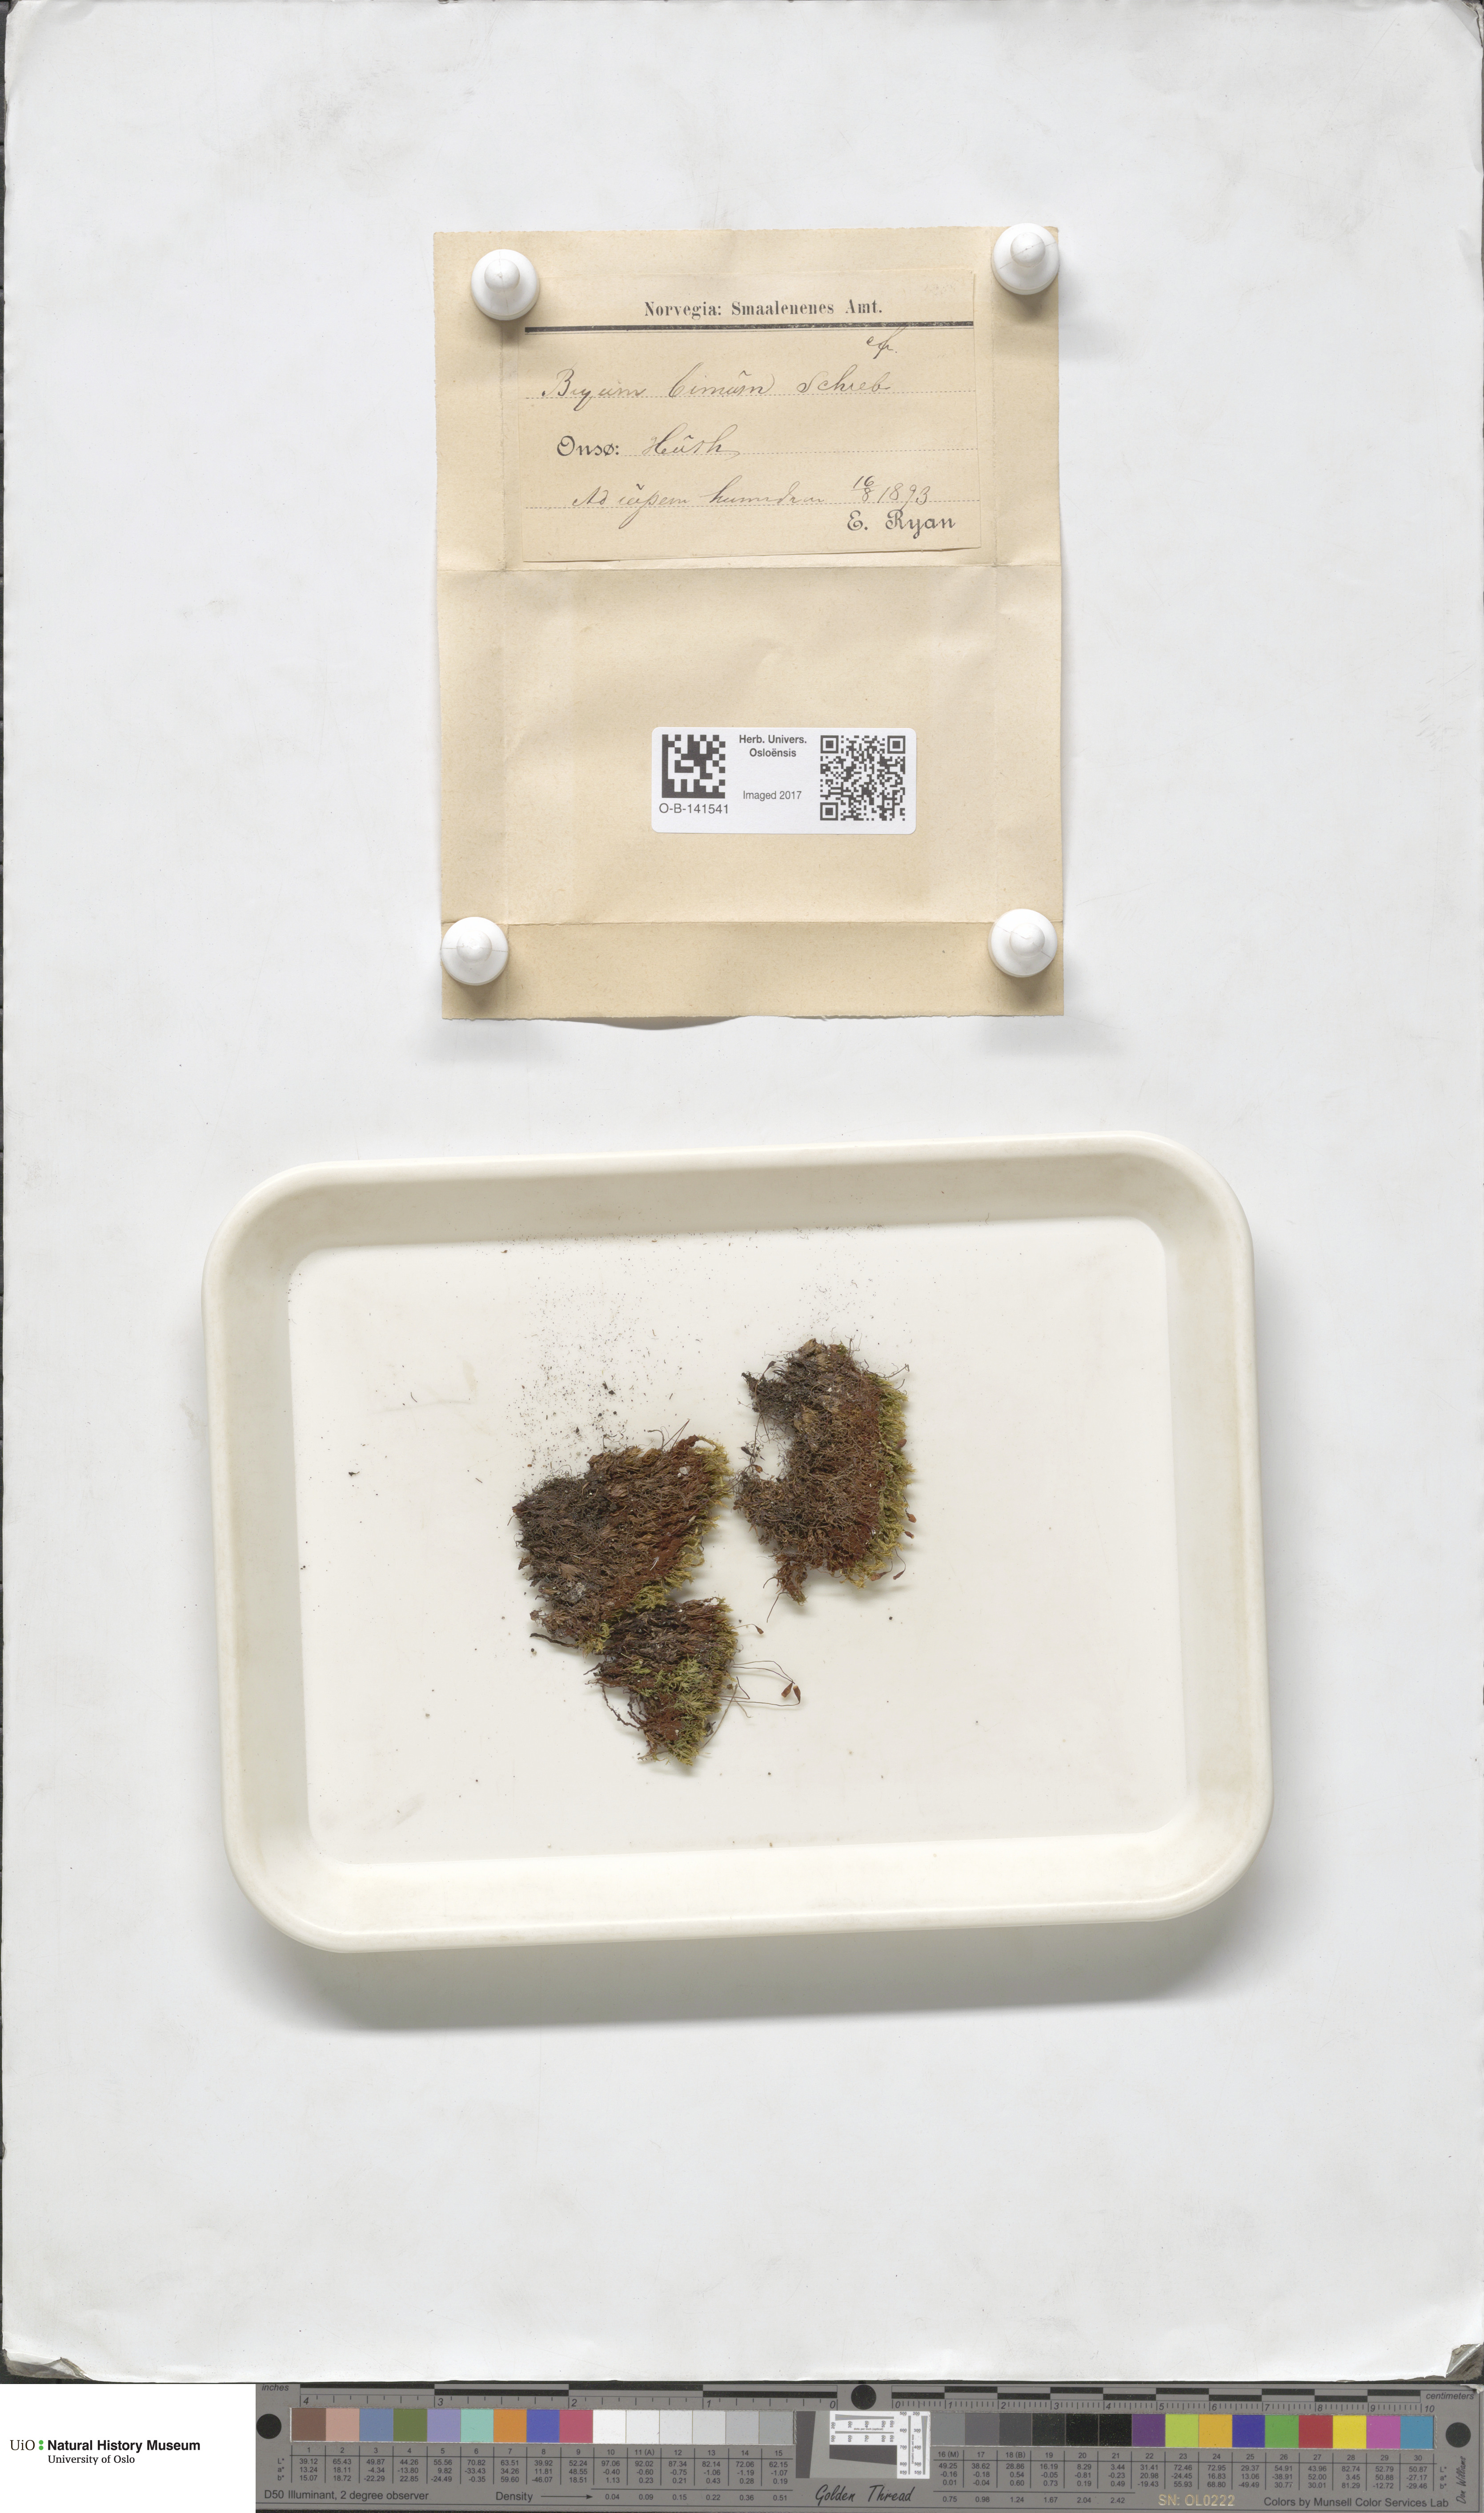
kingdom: Plantae
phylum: Bryophyta
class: Bryopsida
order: Bryales
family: Bryaceae
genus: Ptychostomum
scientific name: Ptychostomum bimum
